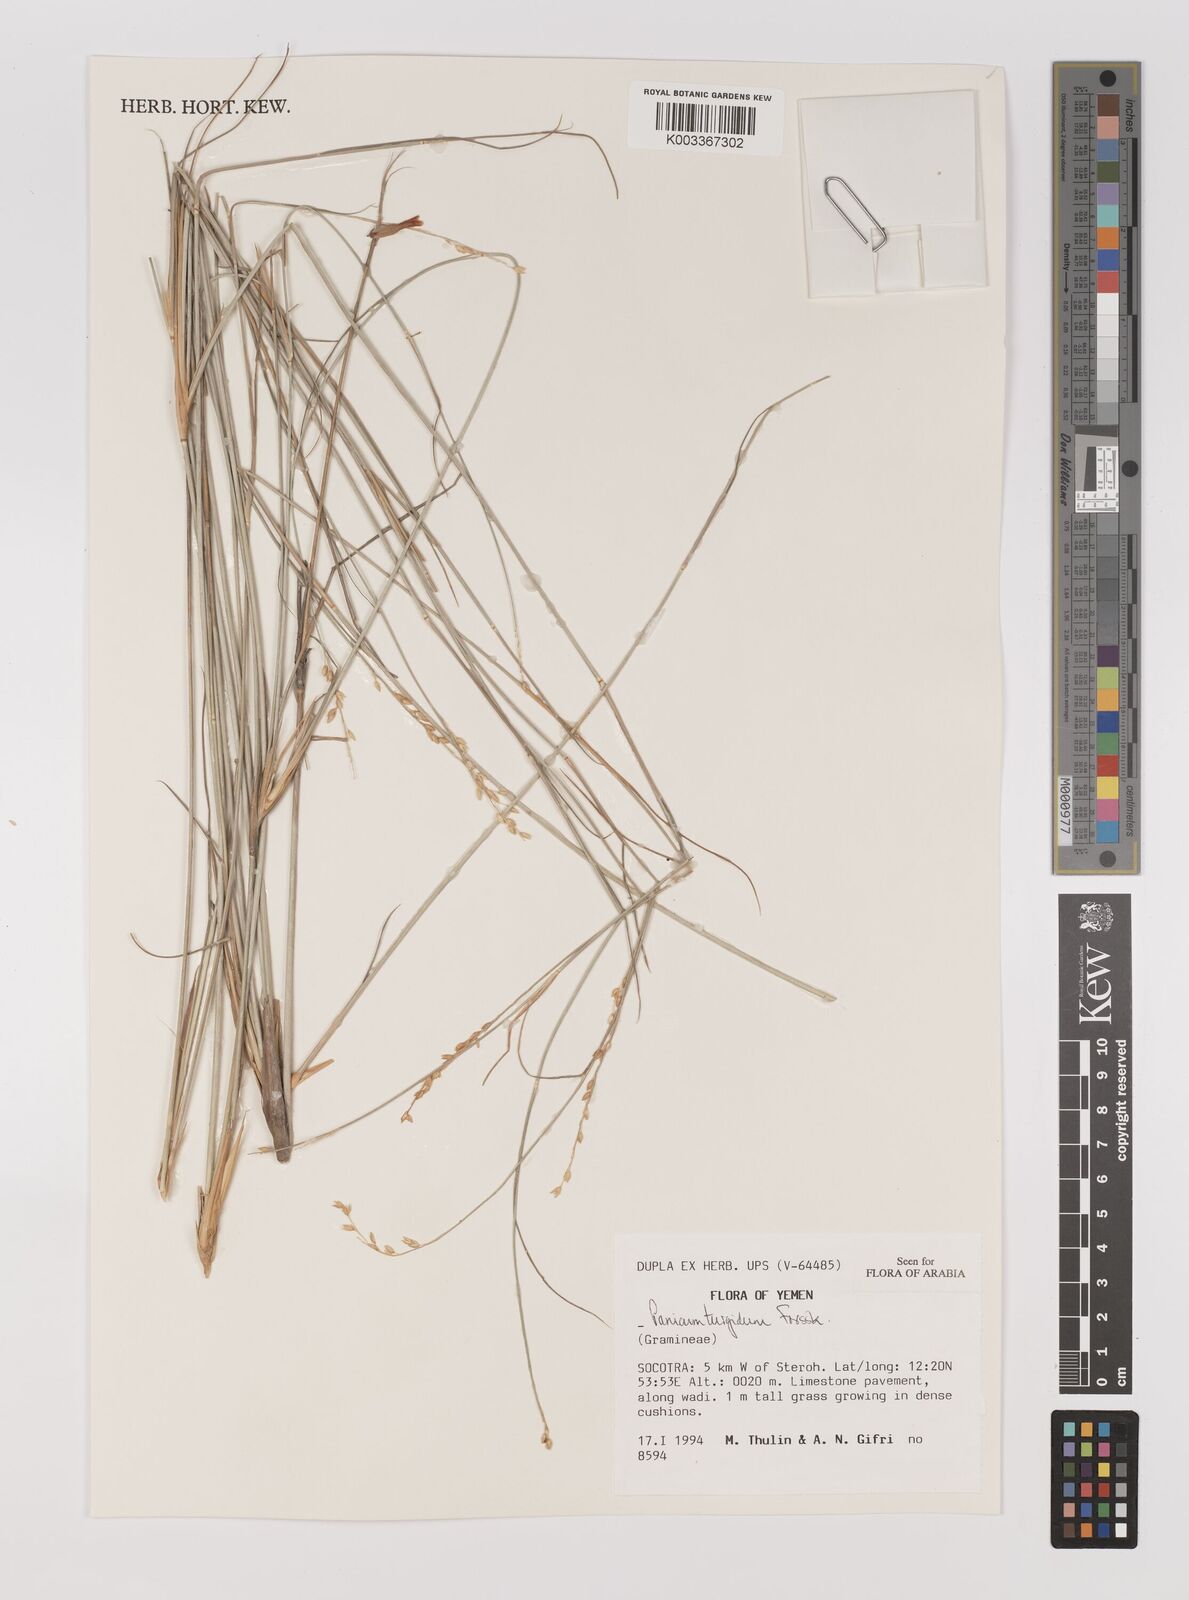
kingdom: Plantae
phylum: Tracheophyta
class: Liliopsida
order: Poales
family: Poaceae
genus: Panicum
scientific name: Panicum turgidum
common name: Desert grass
